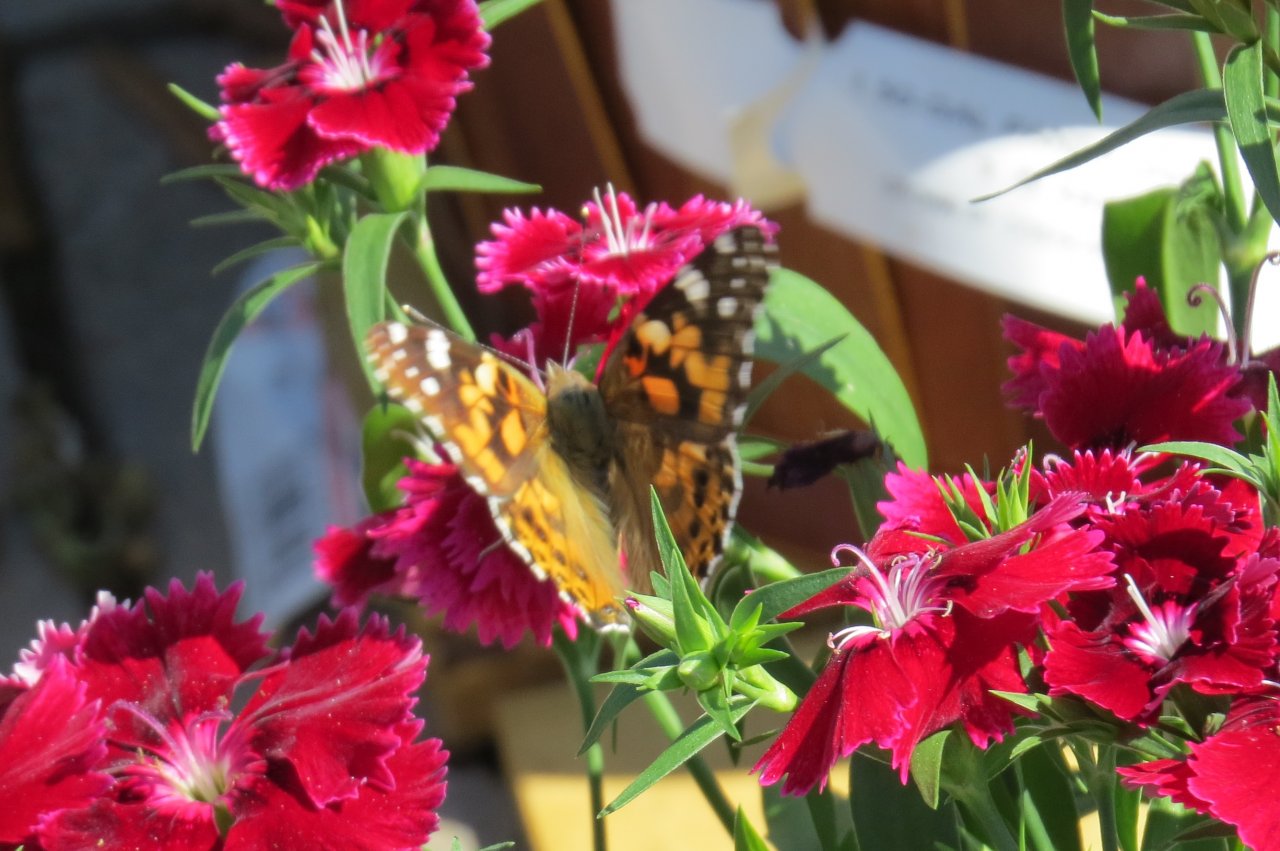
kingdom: Animalia
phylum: Arthropoda
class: Insecta
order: Lepidoptera
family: Nymphalidae
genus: Vanessa
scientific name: Vanessa cardui
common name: Painted Lady
